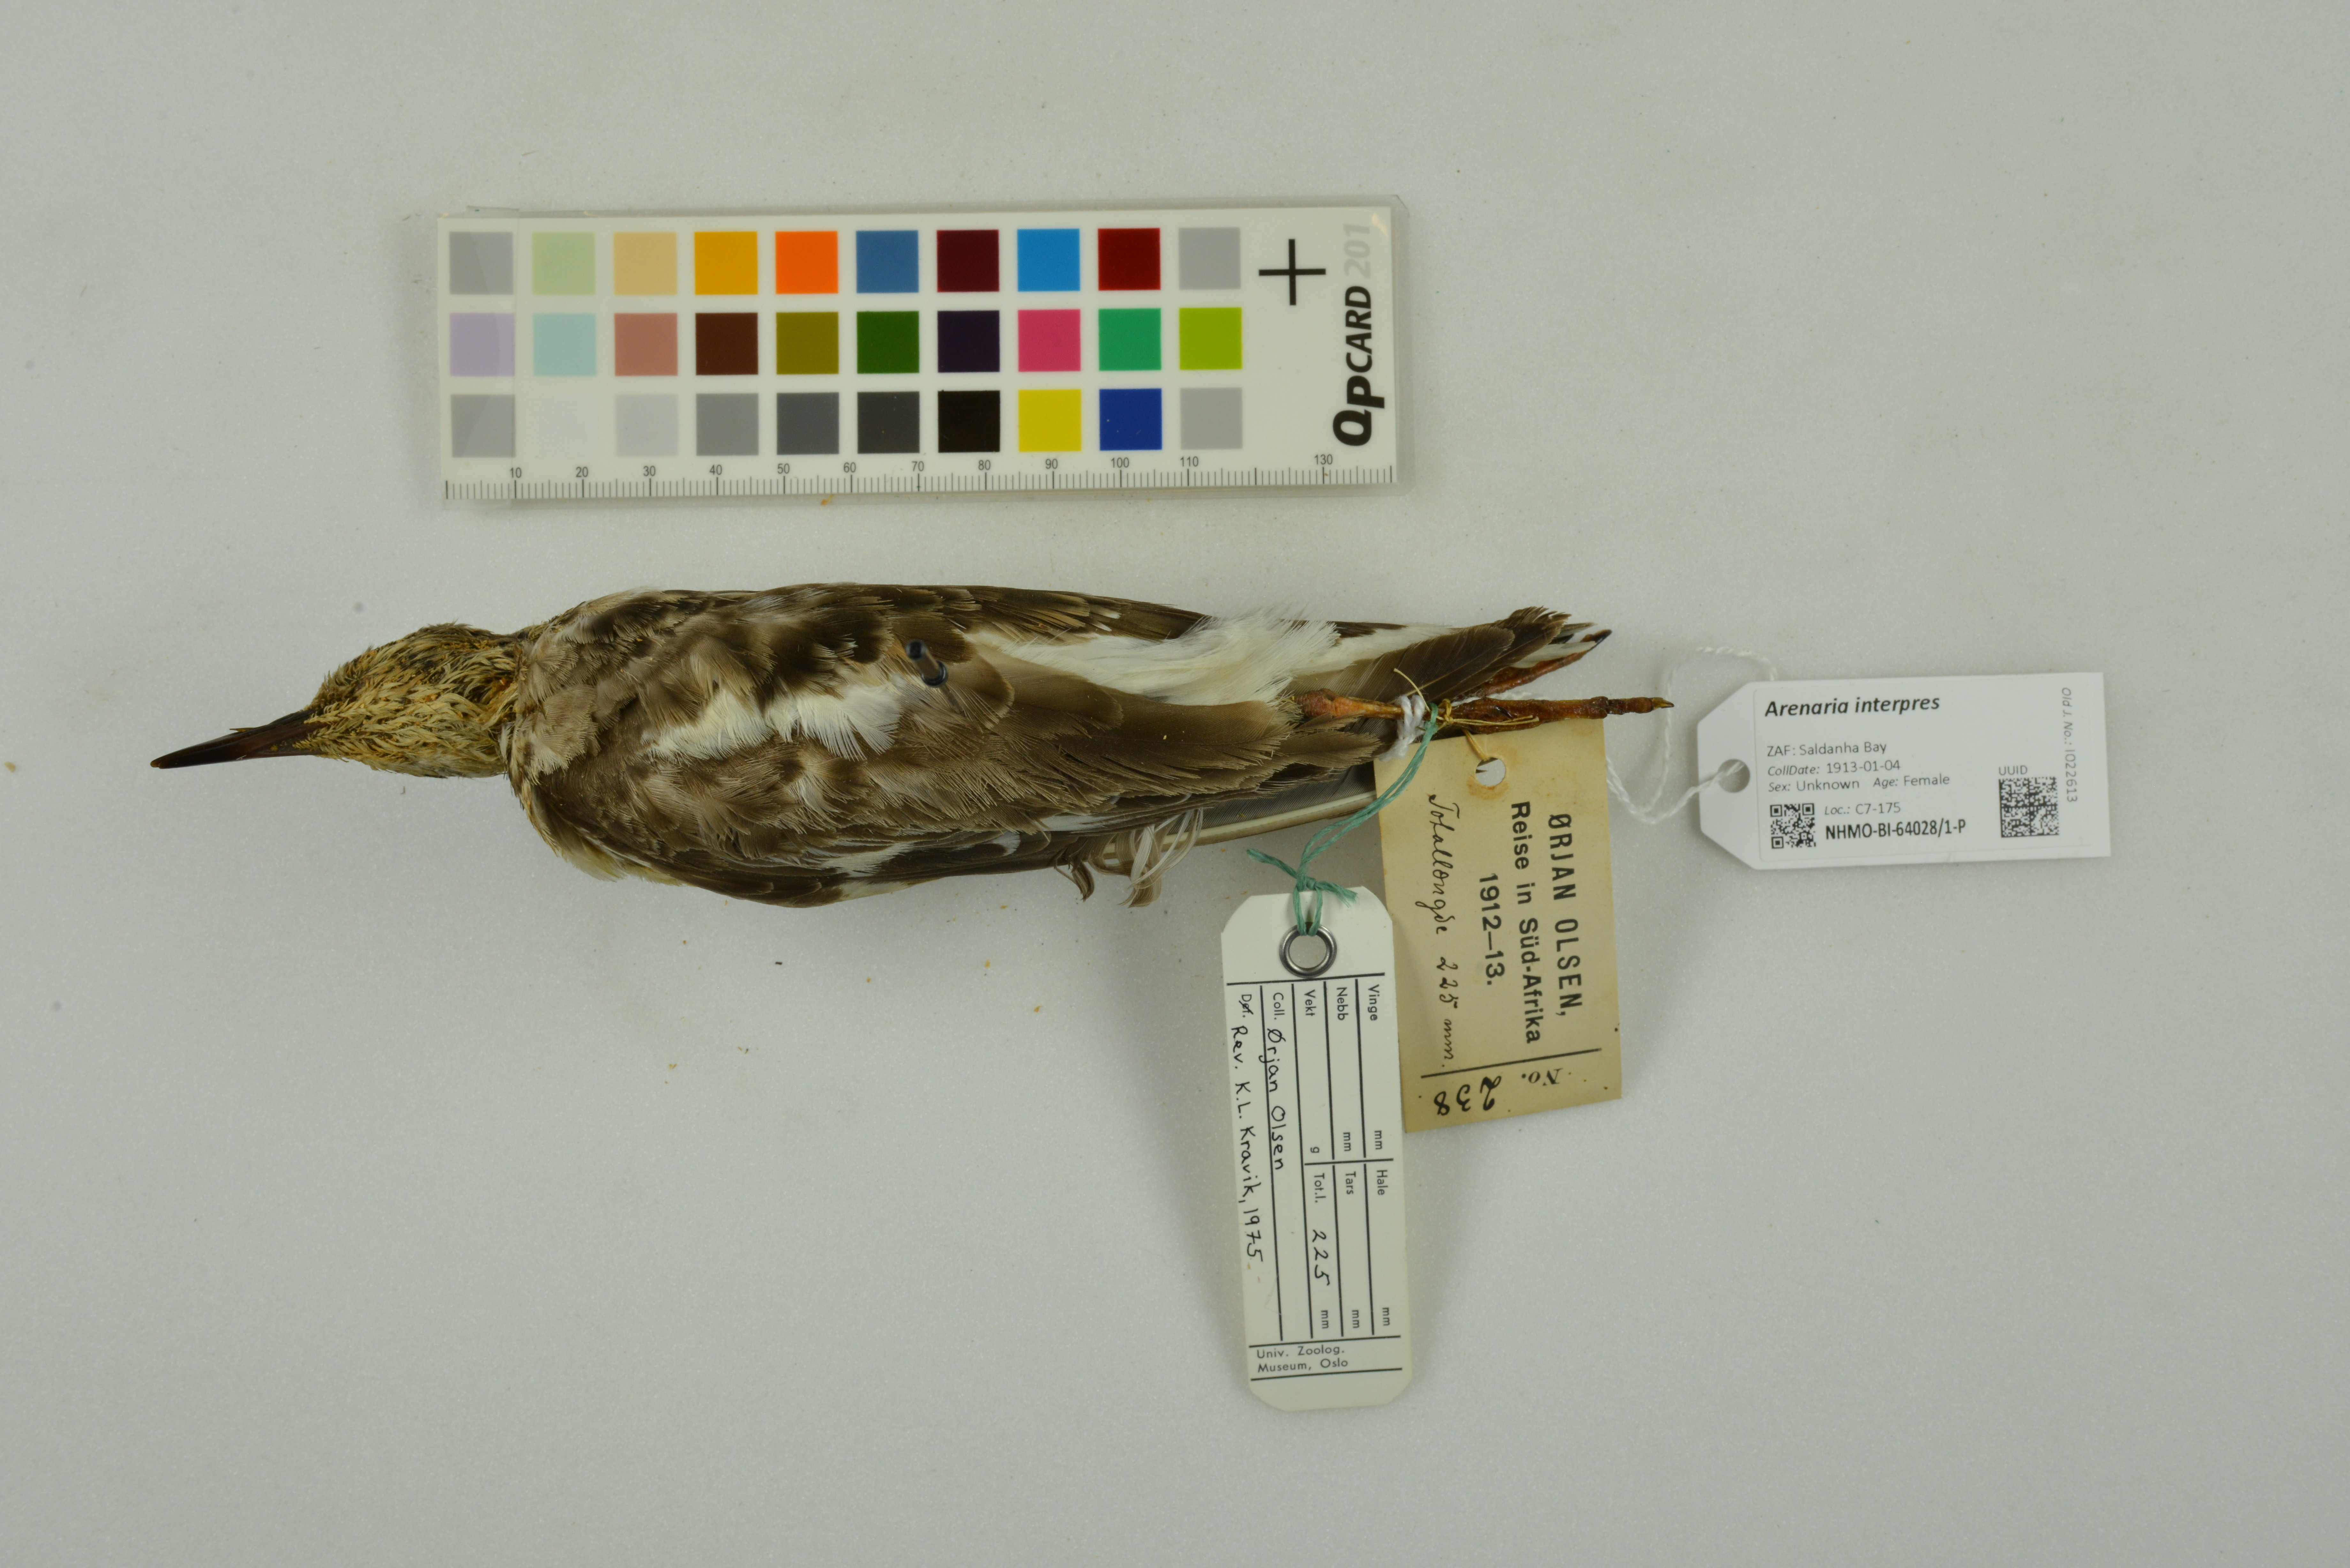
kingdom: Animalia
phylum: Chordata
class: Aves
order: Charadriiformes
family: Scolopacidae
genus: Arenaria
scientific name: Arenaria interpres
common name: Ruddy turnstone
